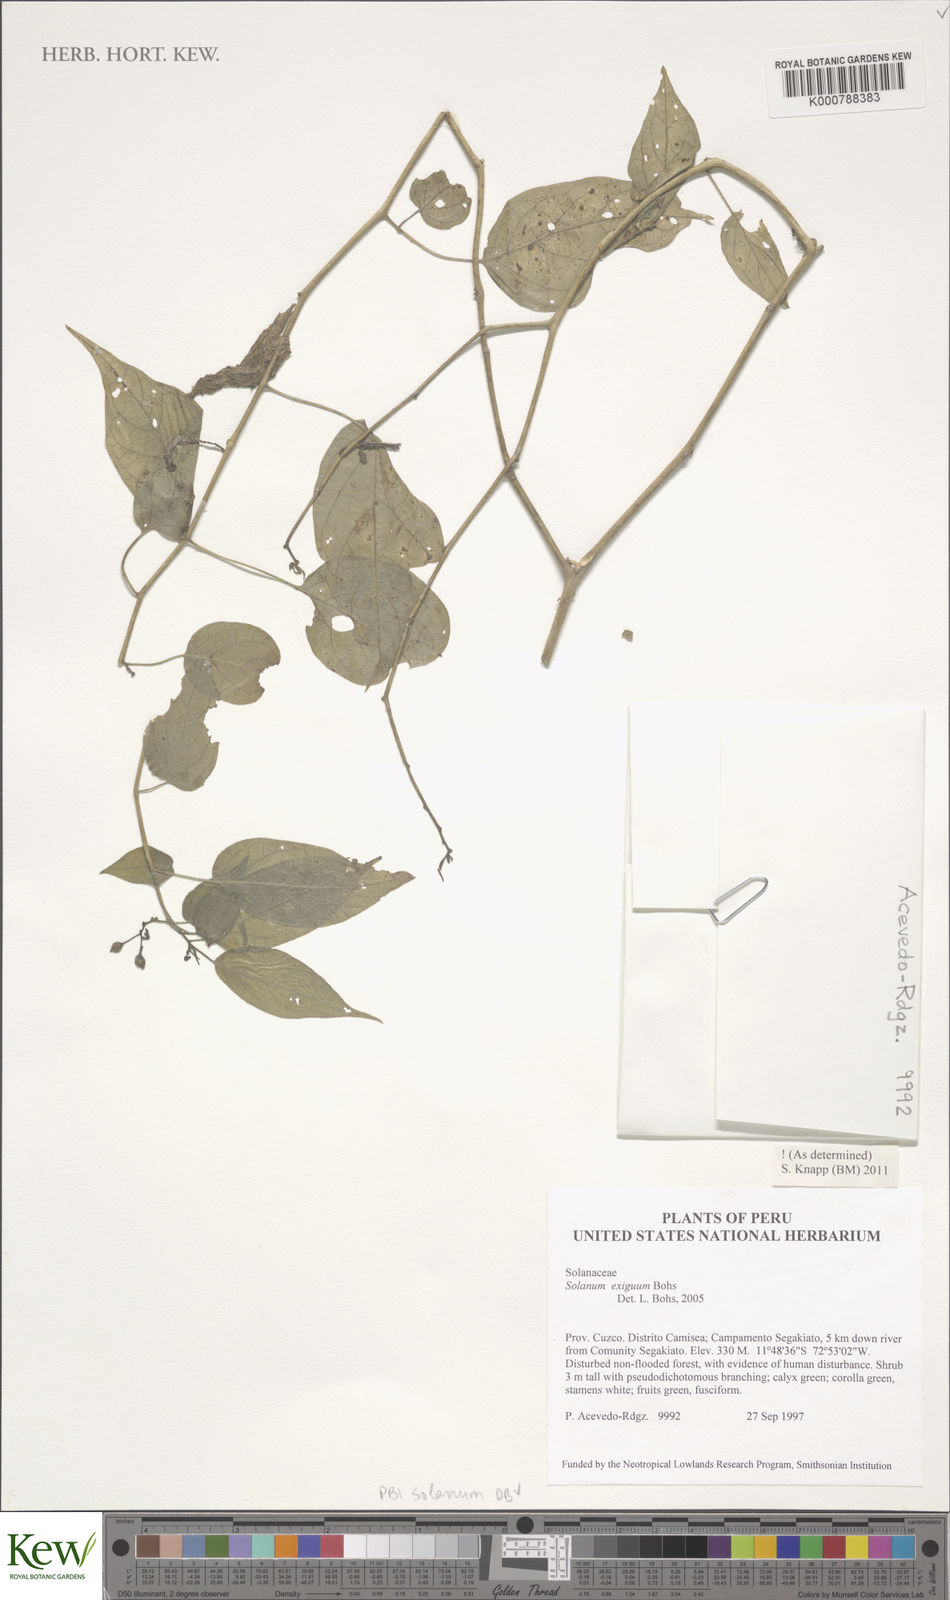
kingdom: Plantae
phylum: Tracheophyta
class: Magnoliopsida
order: Solanales
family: Solanaceae
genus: Solanum
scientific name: Solanum exiguum
